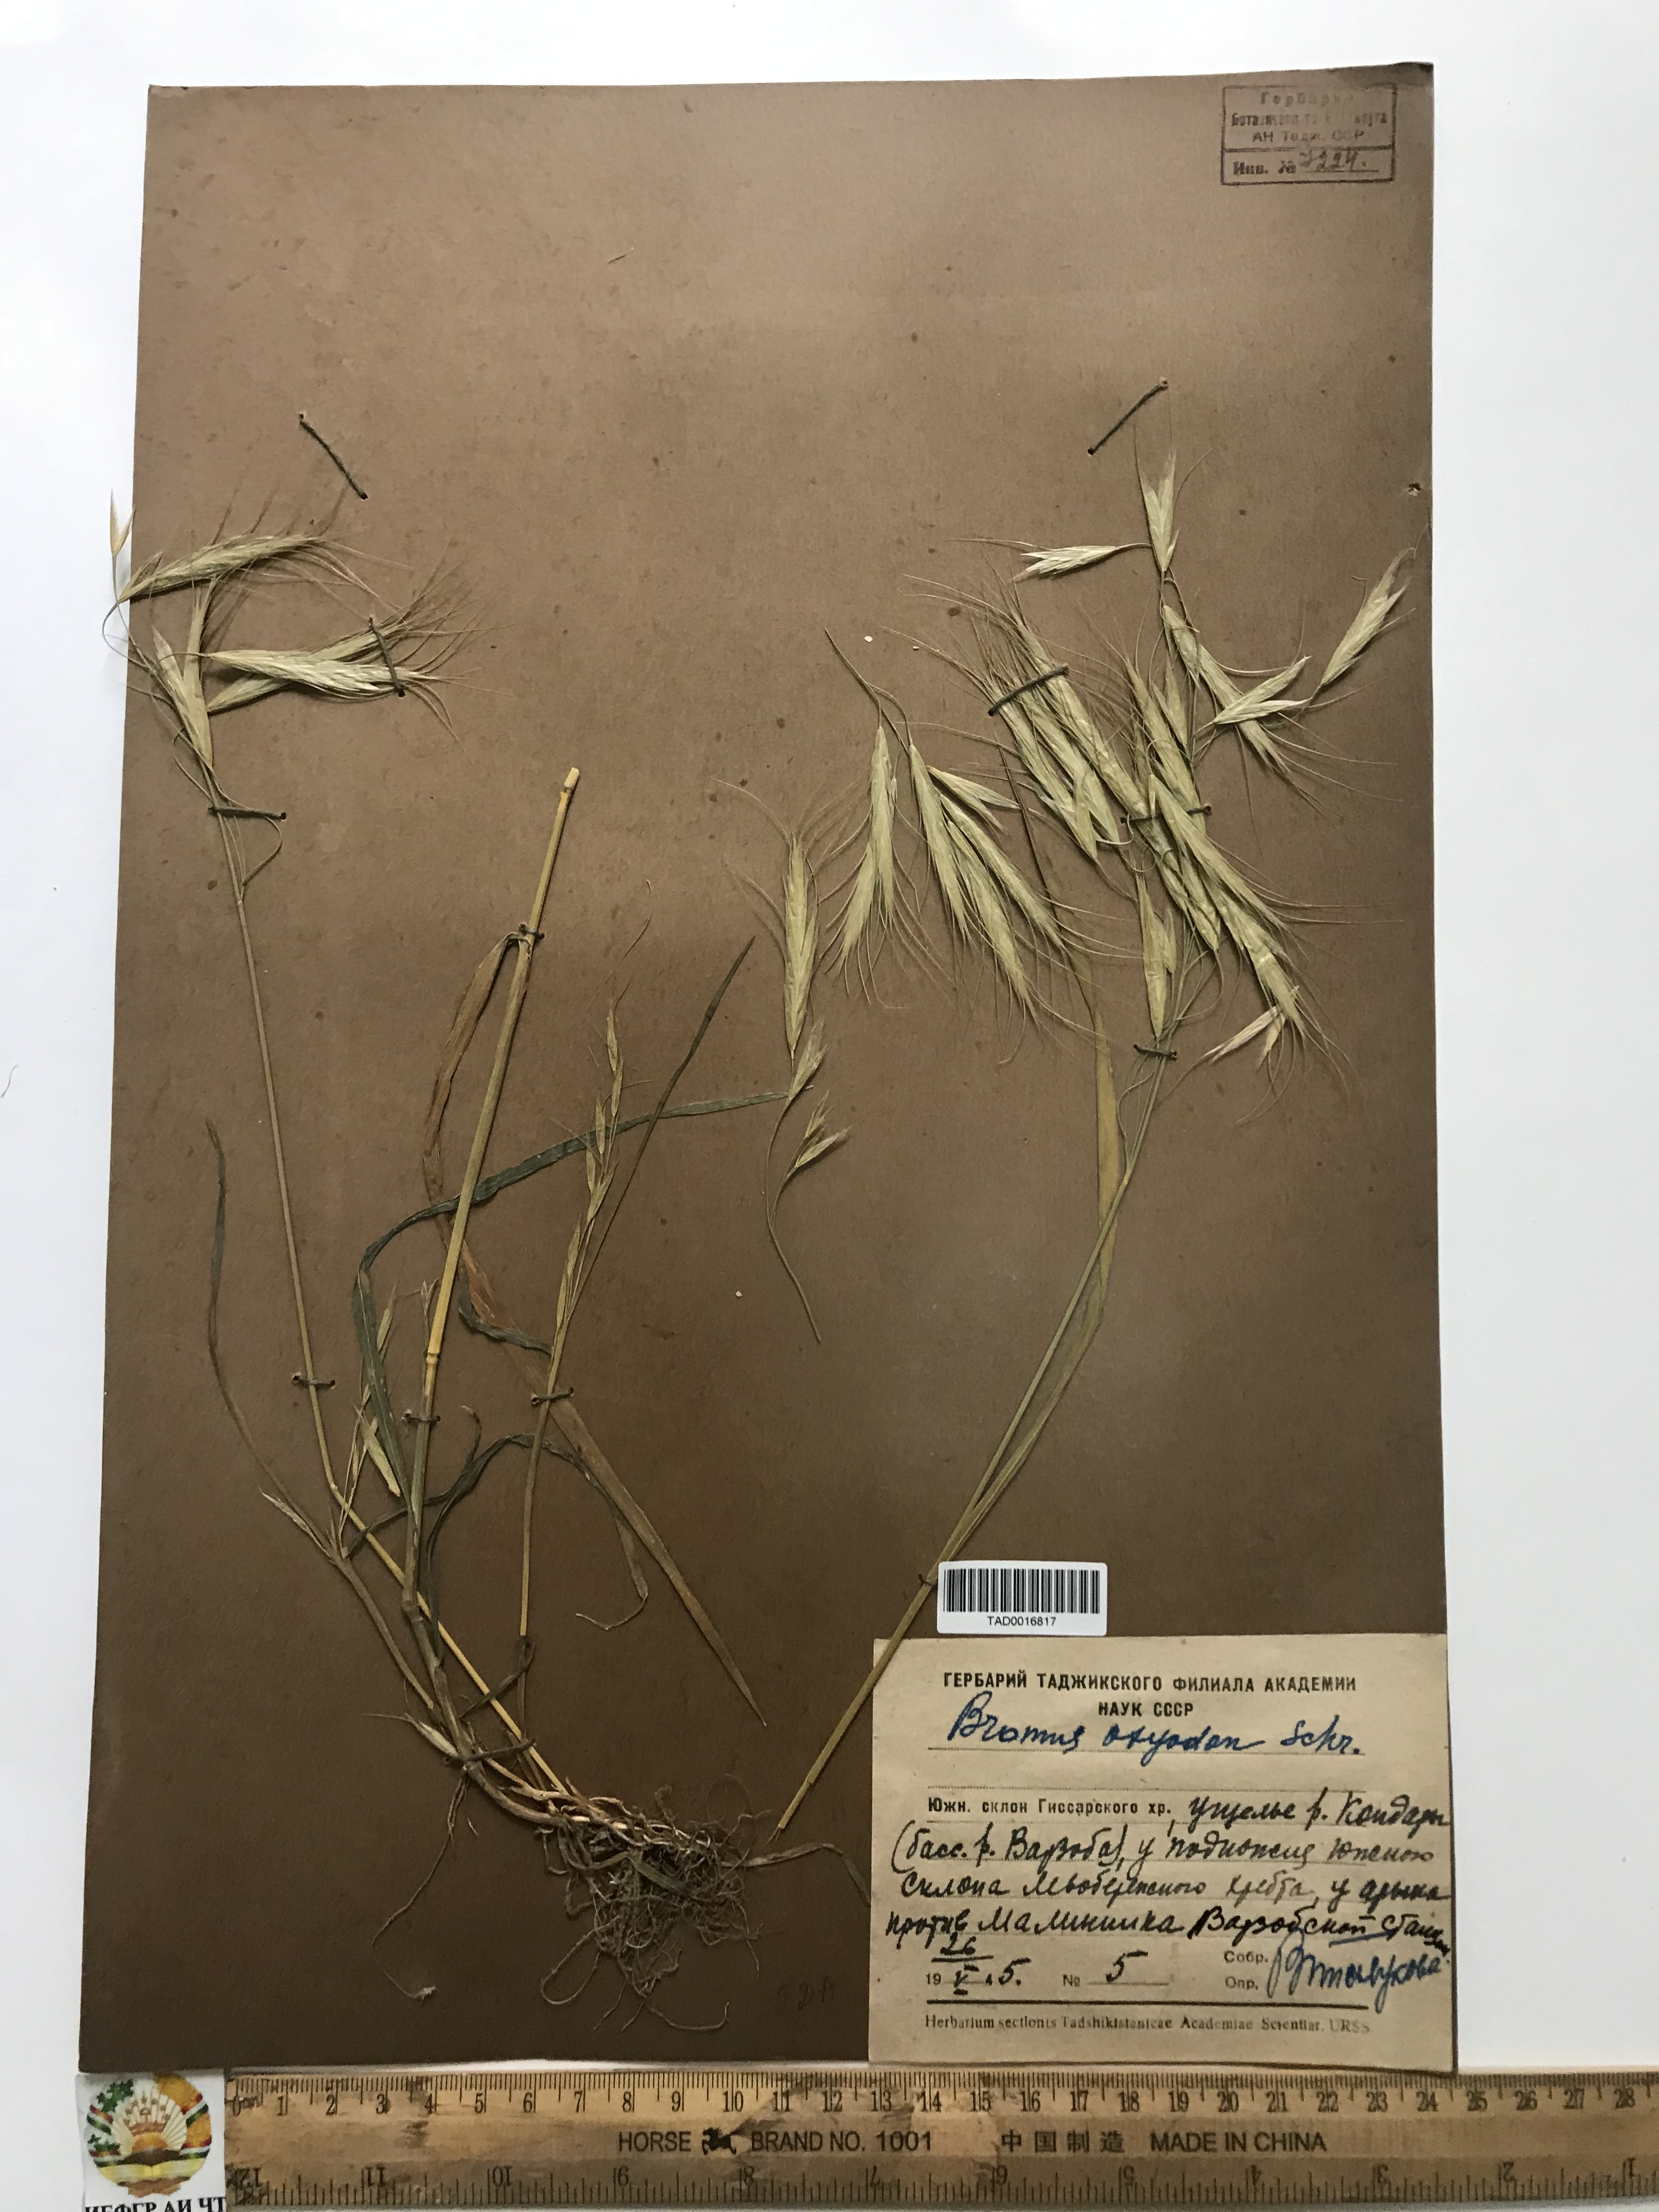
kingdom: Plantae
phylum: Tracheophyta
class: Liliopsida
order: Poales
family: Poaceae
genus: Bromus
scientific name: Bromus oxyodon
